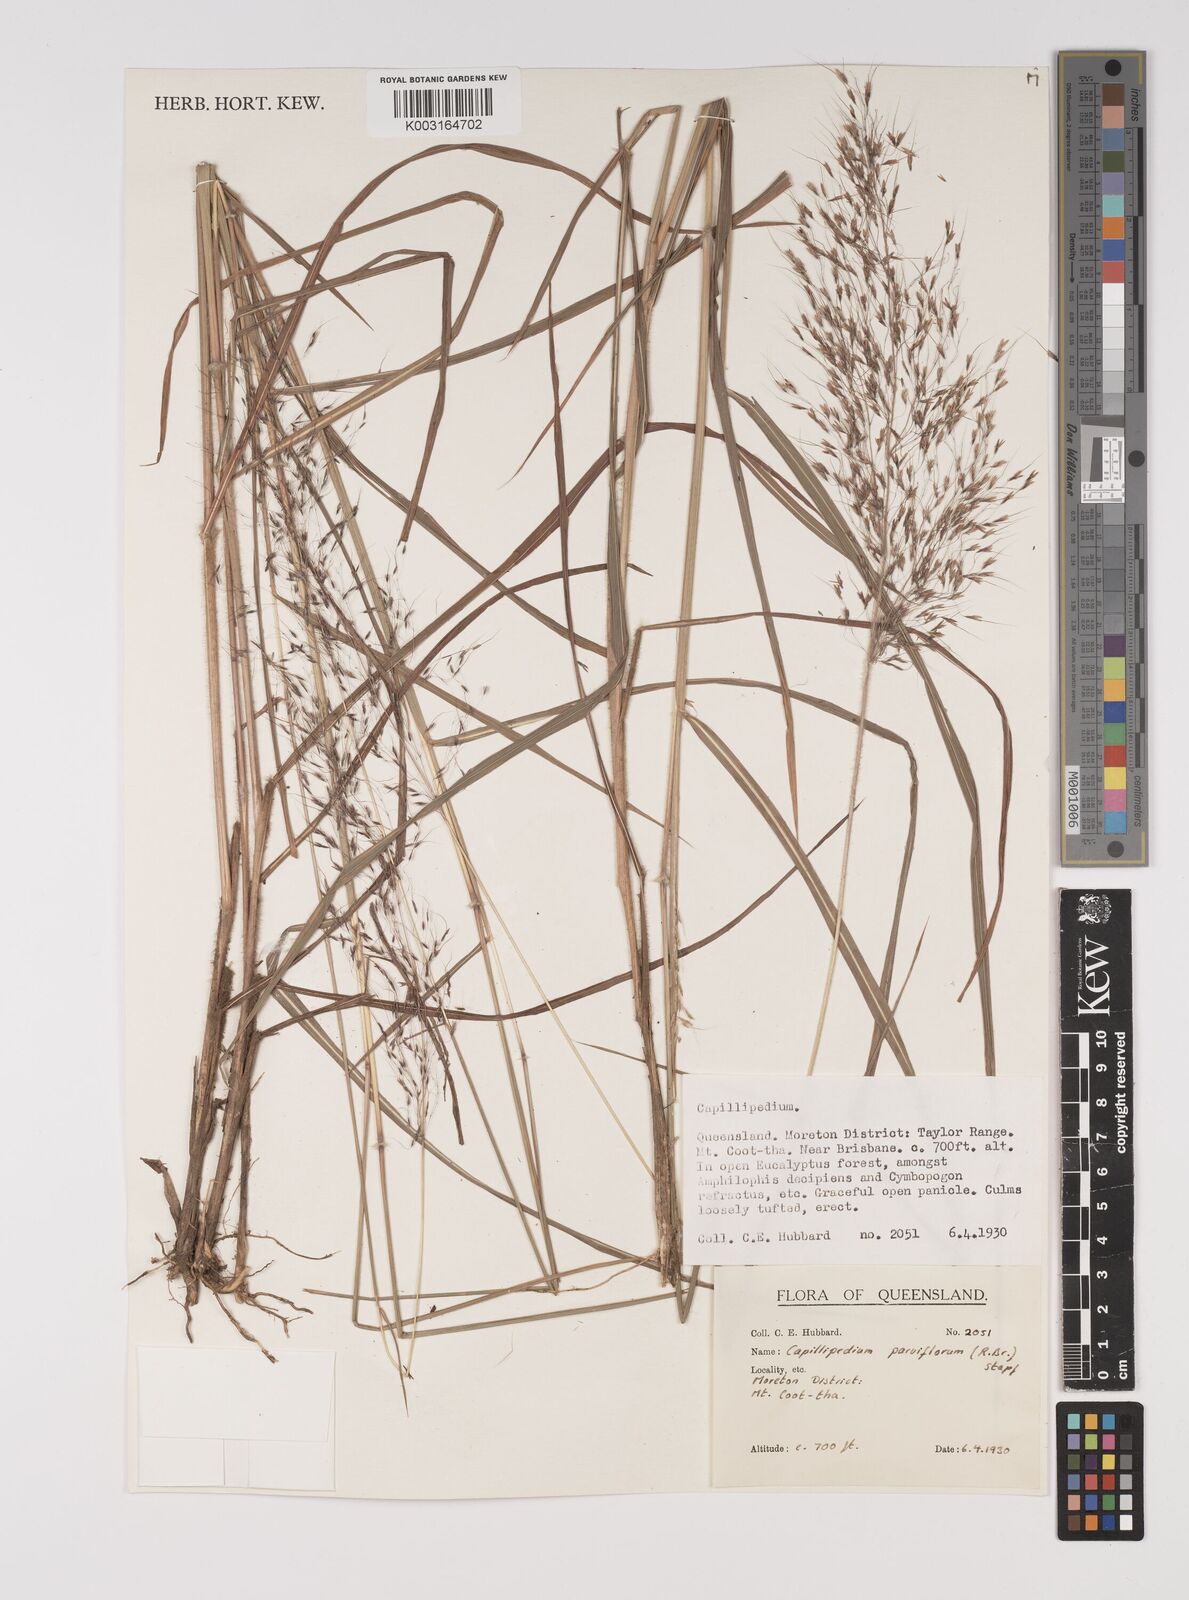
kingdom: Plantae
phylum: Tracheophyta
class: Liliopsida
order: Poales
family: Poaceae
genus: Capillipedium
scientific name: Capillipedium parviflorum
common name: Golden-beard
